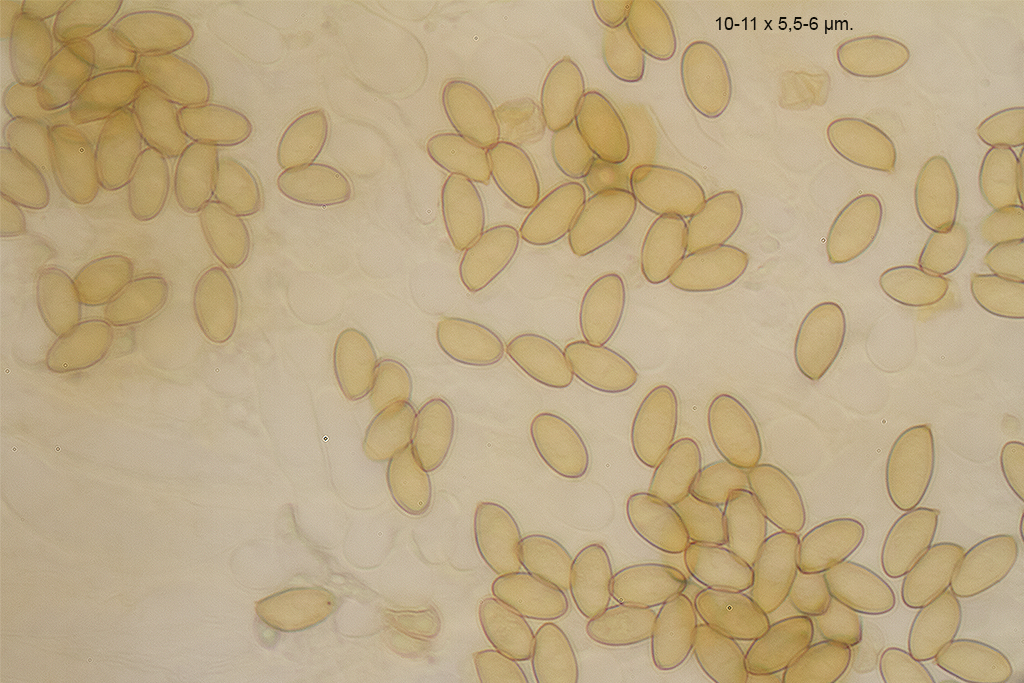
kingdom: Fungi
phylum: Basidiomycota
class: Agaricomycetes
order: Agaricales
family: Hymenogastraceae
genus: Galerina
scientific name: Galerina pumila
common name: honninggul hjelmhat
